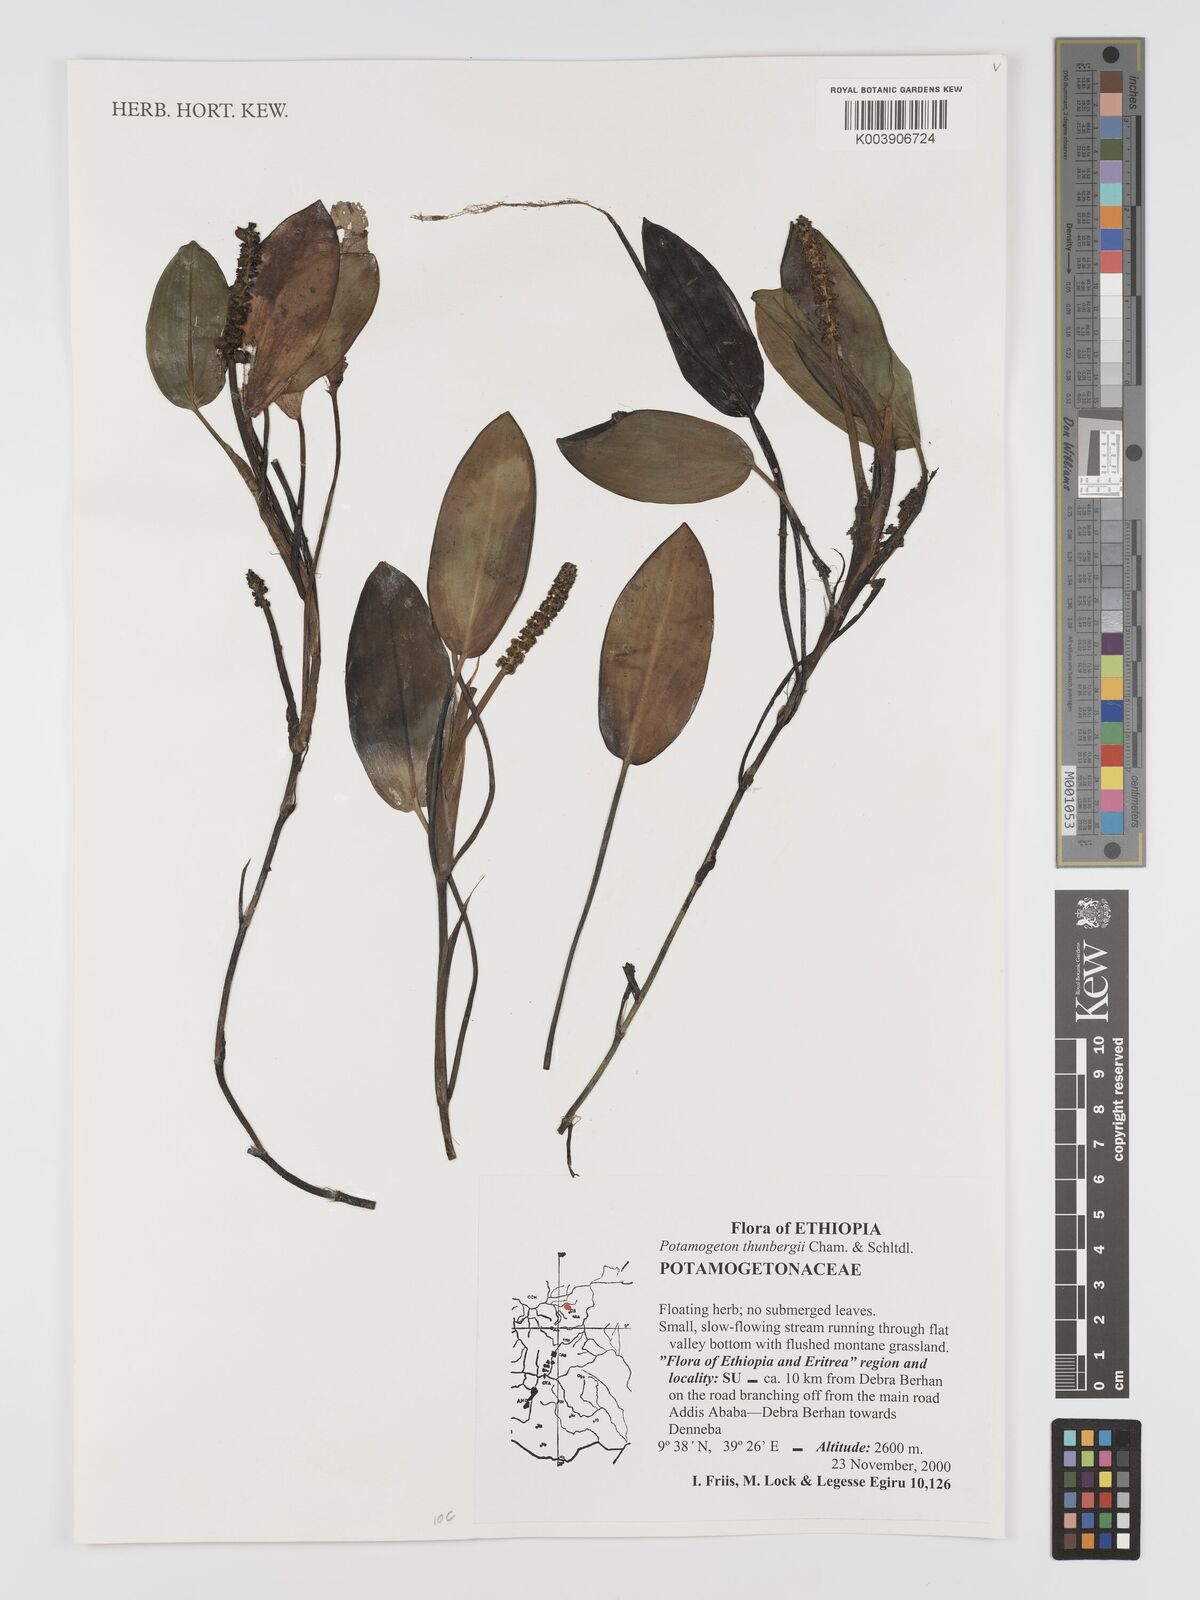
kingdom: Plantae
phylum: Tracheophyta
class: Liliopsida
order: Alismatales
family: Potamogetonaceae
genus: Potamogeton
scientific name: Potamogeton nodosus
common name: Loddon pondweed
